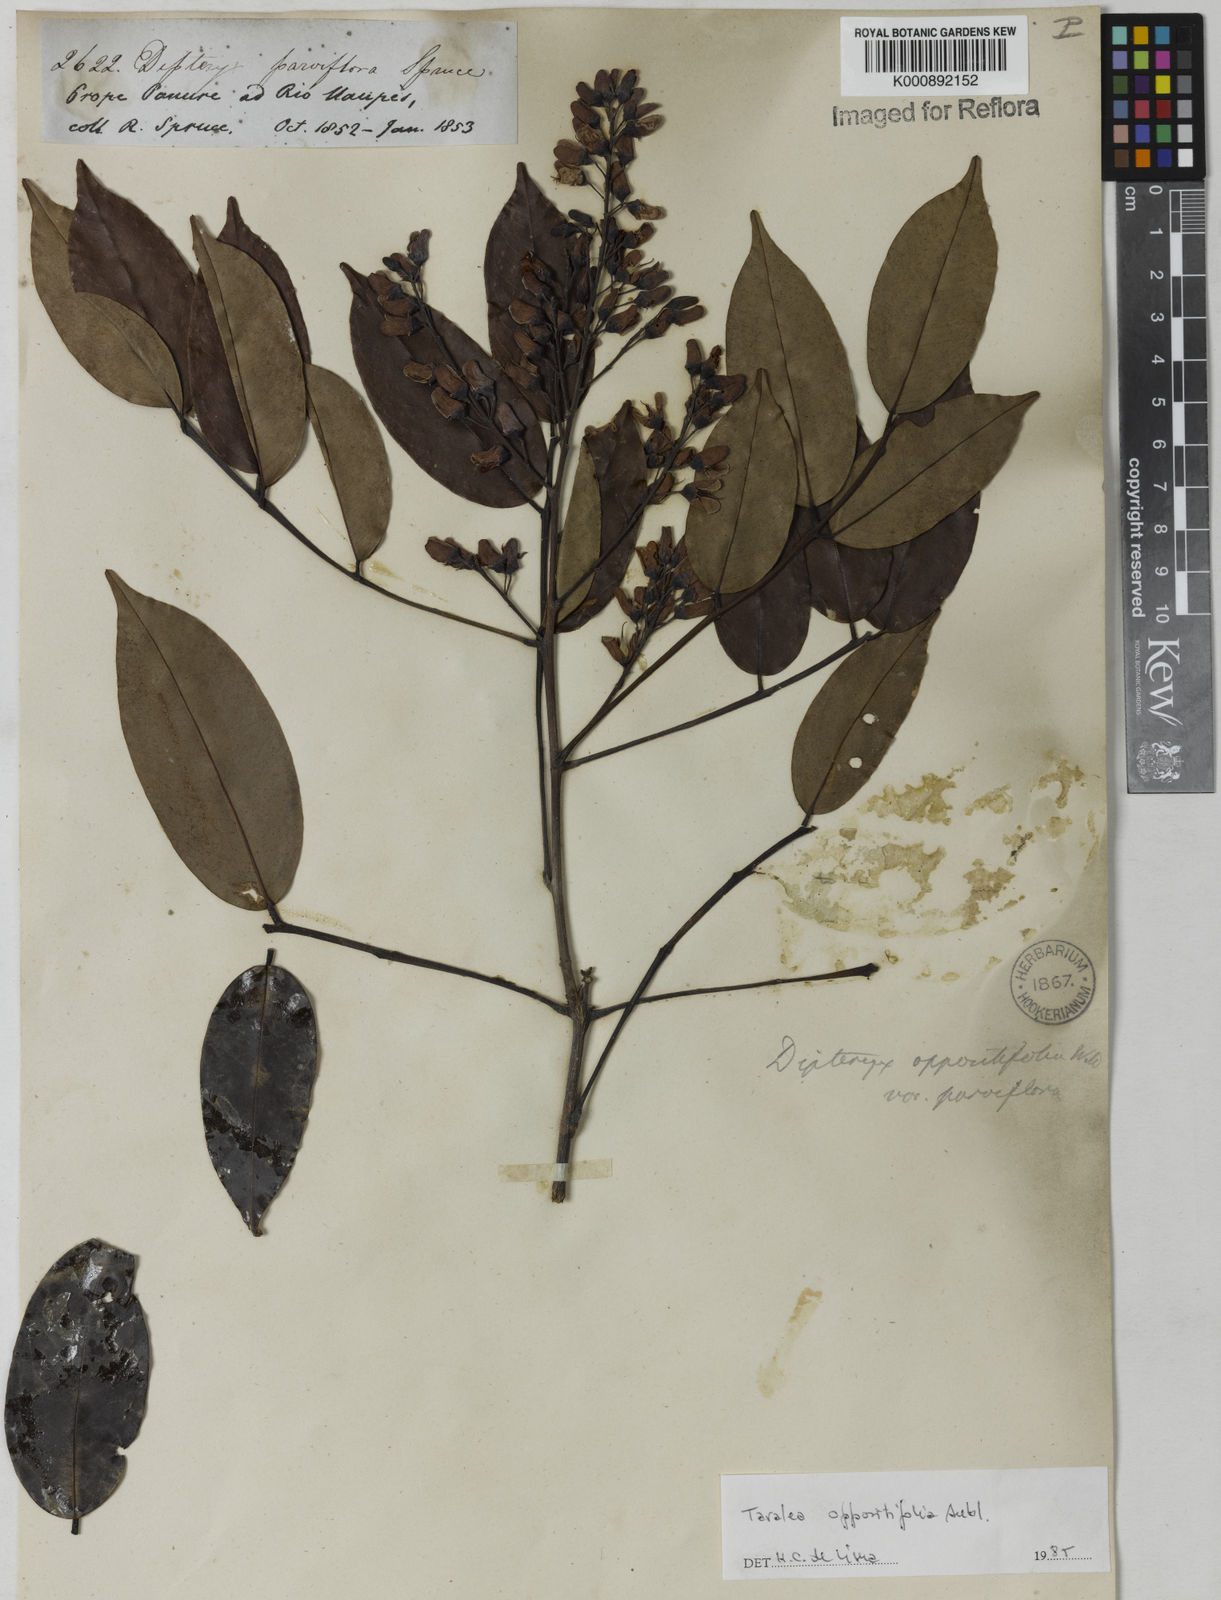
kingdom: Plantae
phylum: Tracheophyta
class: Magnoliopsida
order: Fabales
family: Fabaceae
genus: Taralea
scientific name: Taralea oppositifolia
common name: Tonka
